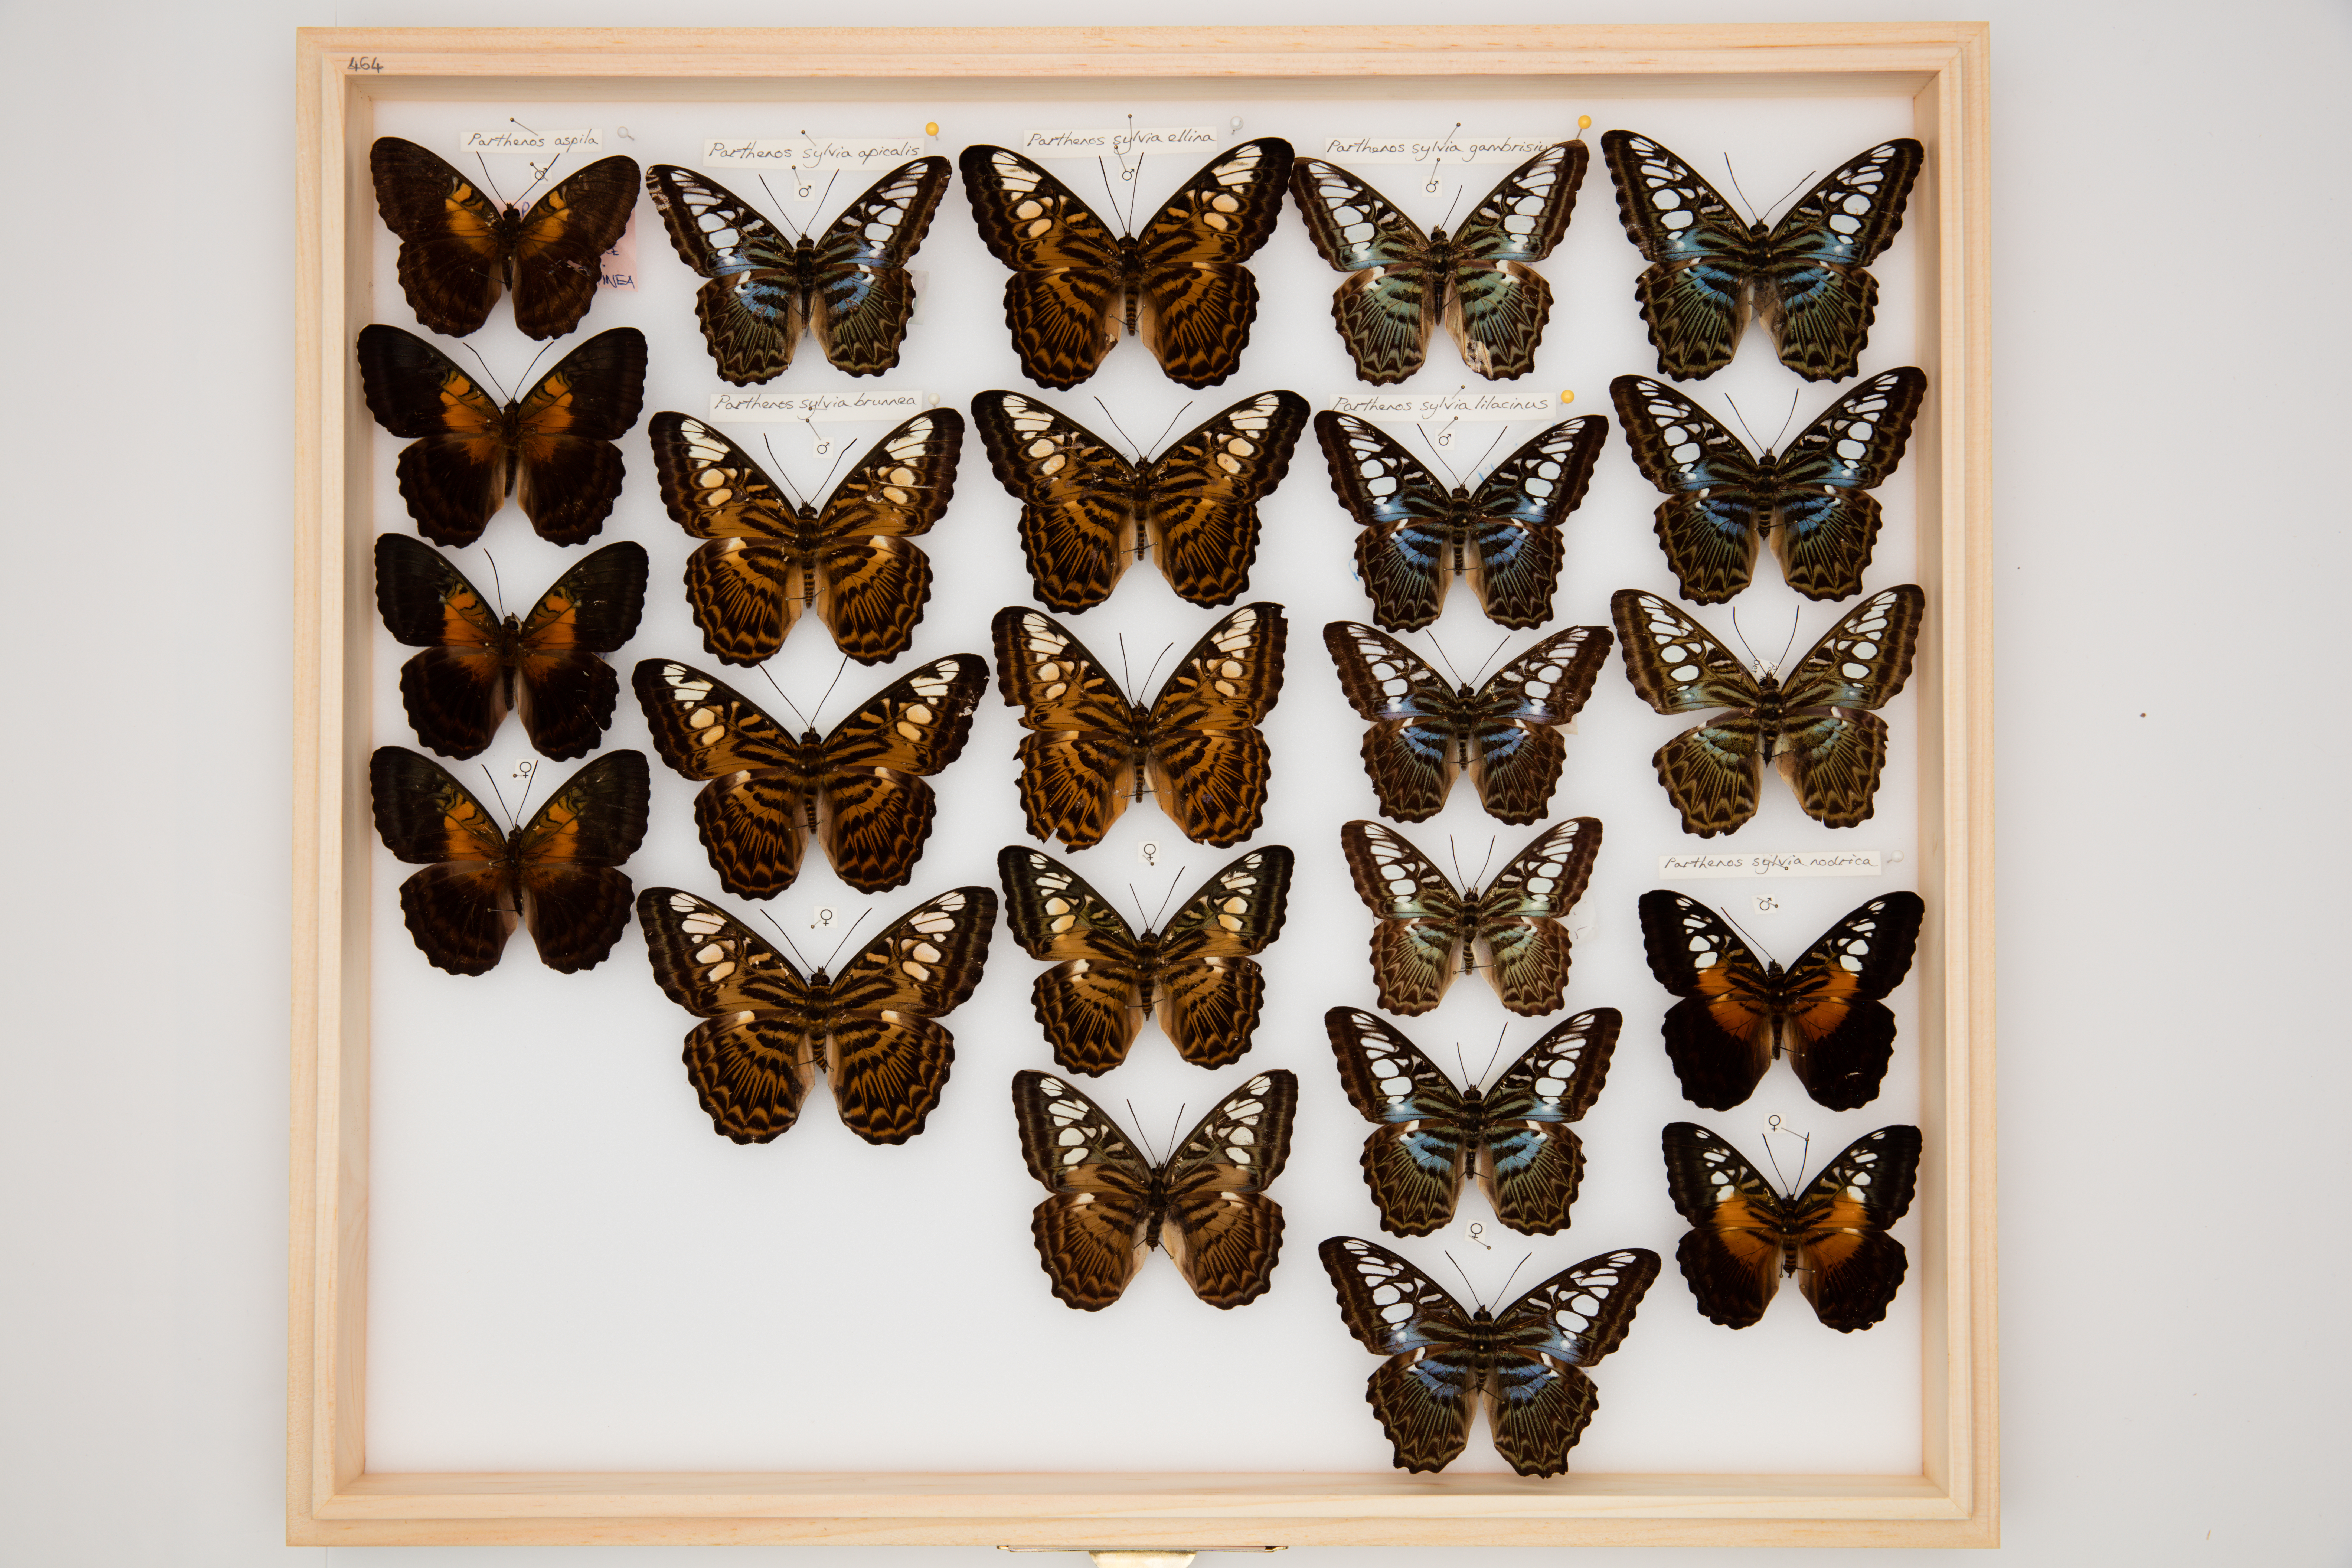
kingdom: Animalia
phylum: Arthropoda
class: Insecta
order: Lepidoptera
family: Nymphalidae
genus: Kallima
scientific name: Kallima sylvia
